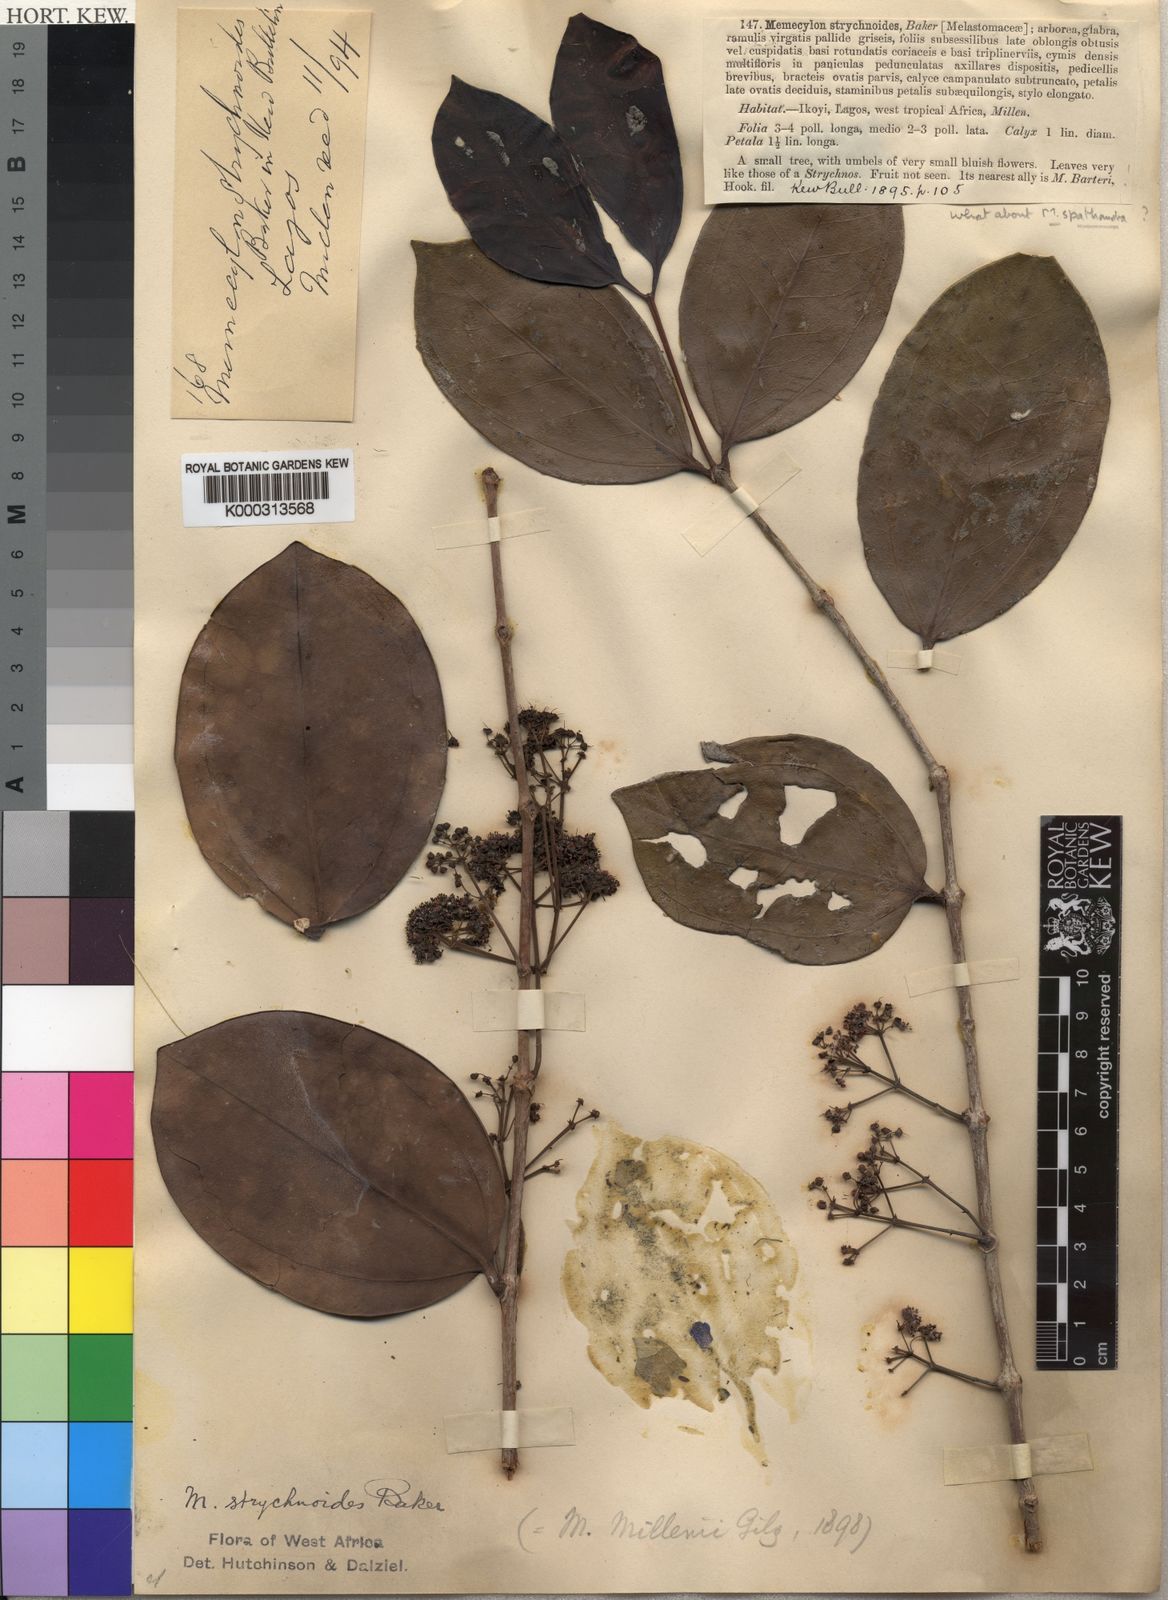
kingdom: Plantae
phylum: Tracheophyta
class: Magnoliopsida
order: Myrtales
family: Melastomataceae
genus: Spathandra
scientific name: Spathandra blakeoides
